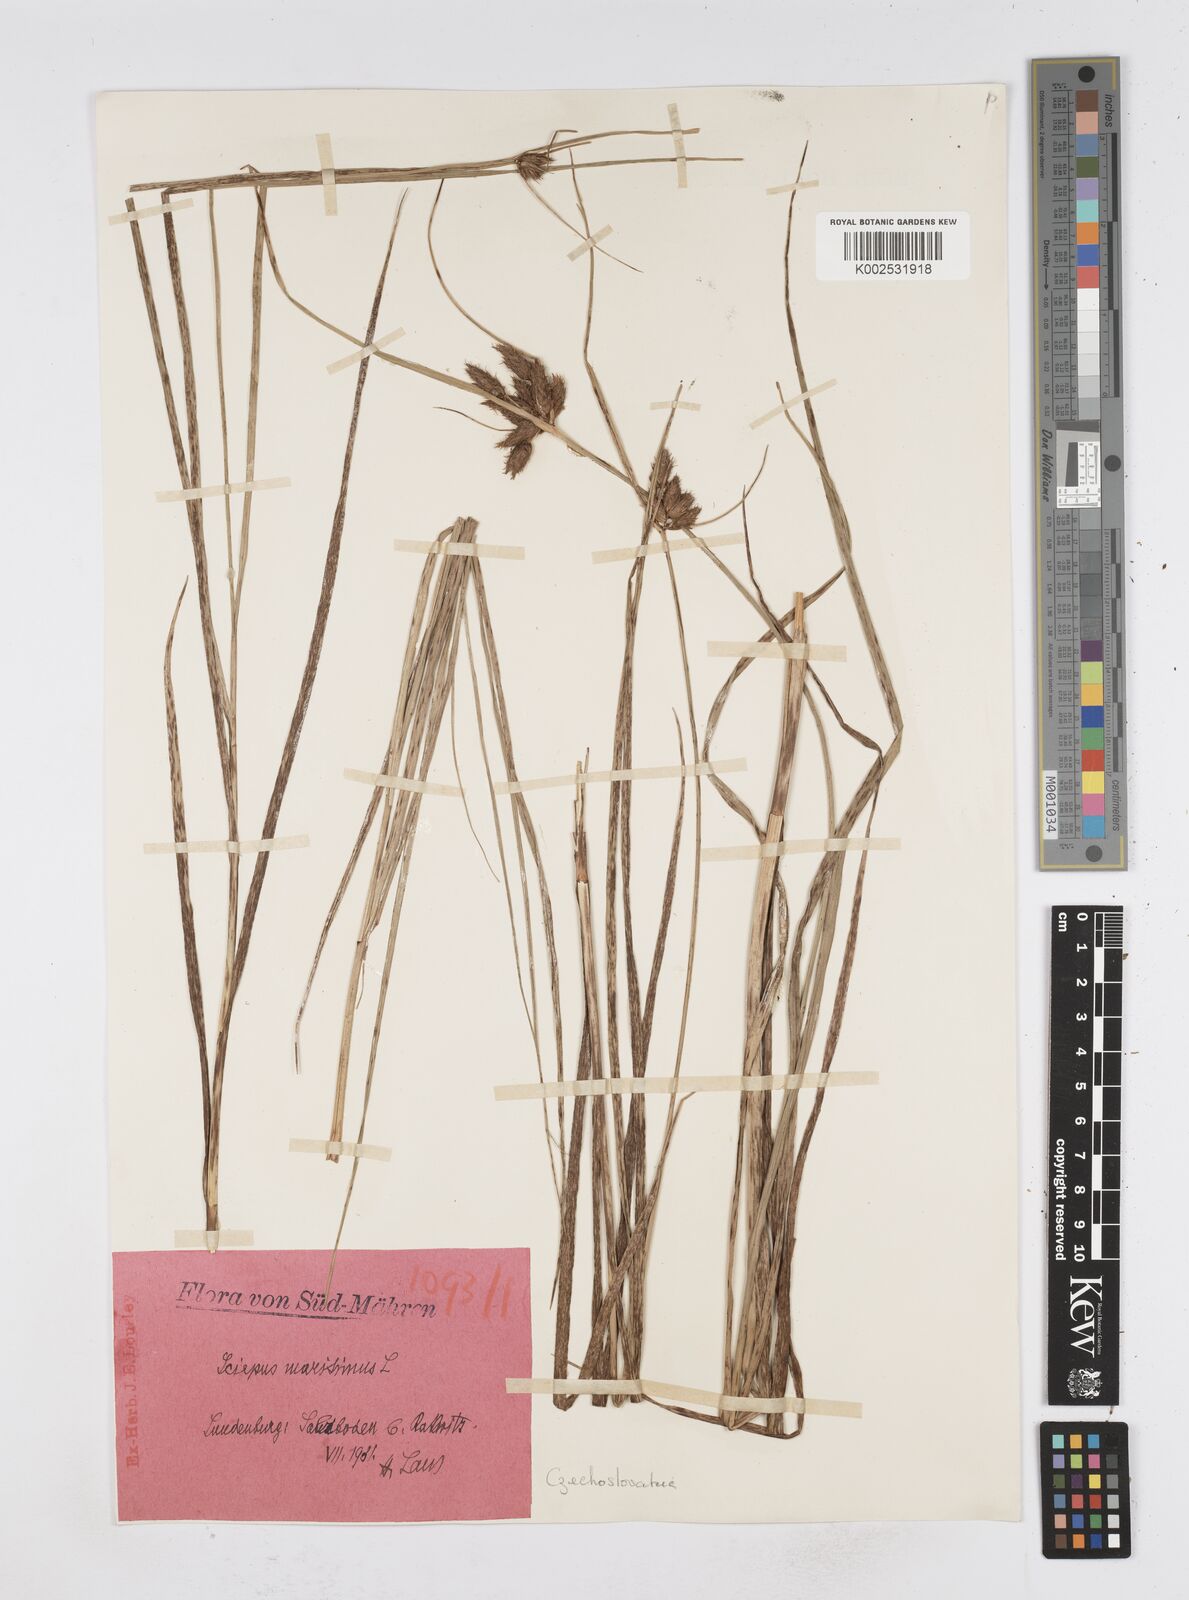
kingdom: Plantae
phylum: Tracheophyta
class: Liliopsida
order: Poales
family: Cyperaceae
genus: Bolboschoenus
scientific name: Bolboschoenus maritimus
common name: Sea club-rush
